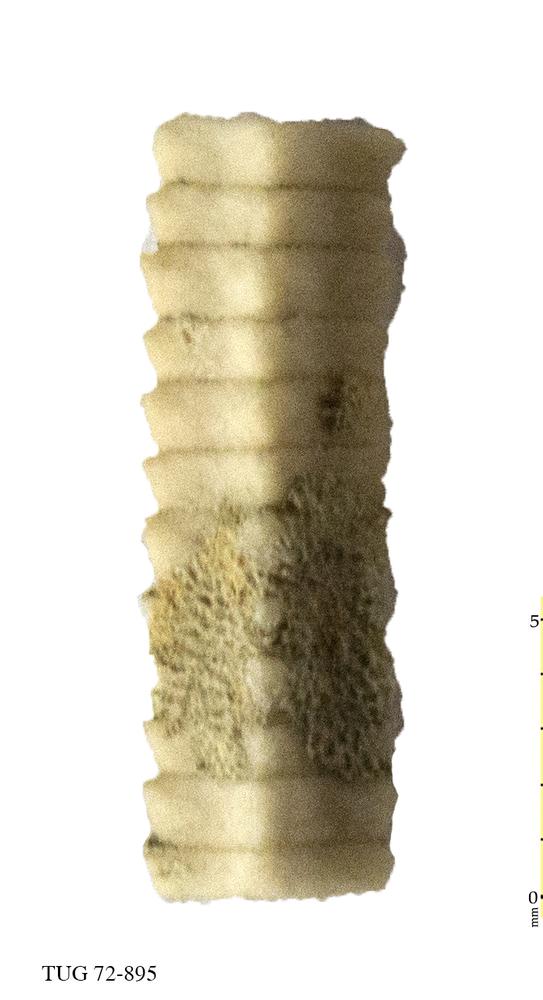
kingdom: Animalia
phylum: Echinodermata
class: Crinoidea
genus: Baltocrinus
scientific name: Baltocrinus
